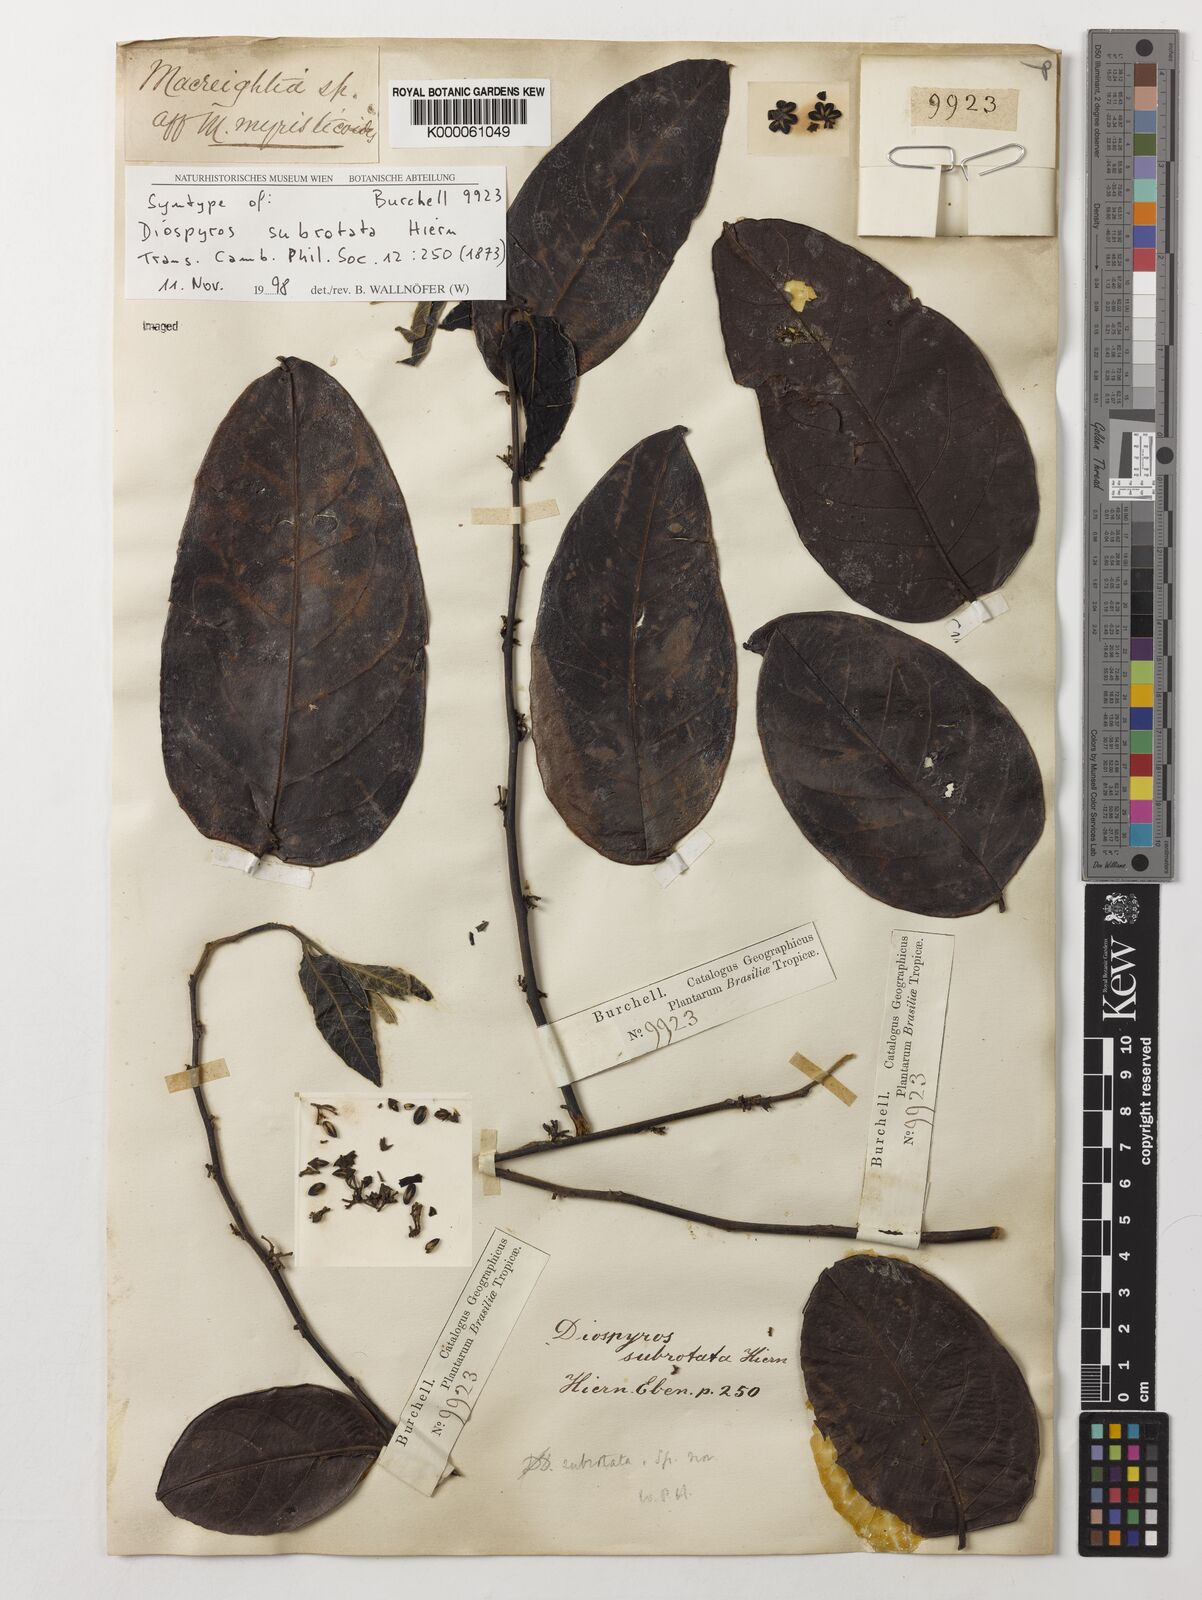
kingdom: Plantae
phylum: Tracheophyta
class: Magnoliopsida
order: Ericales
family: Ebenaceae
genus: Diospyros
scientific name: Diospyros subrotata
